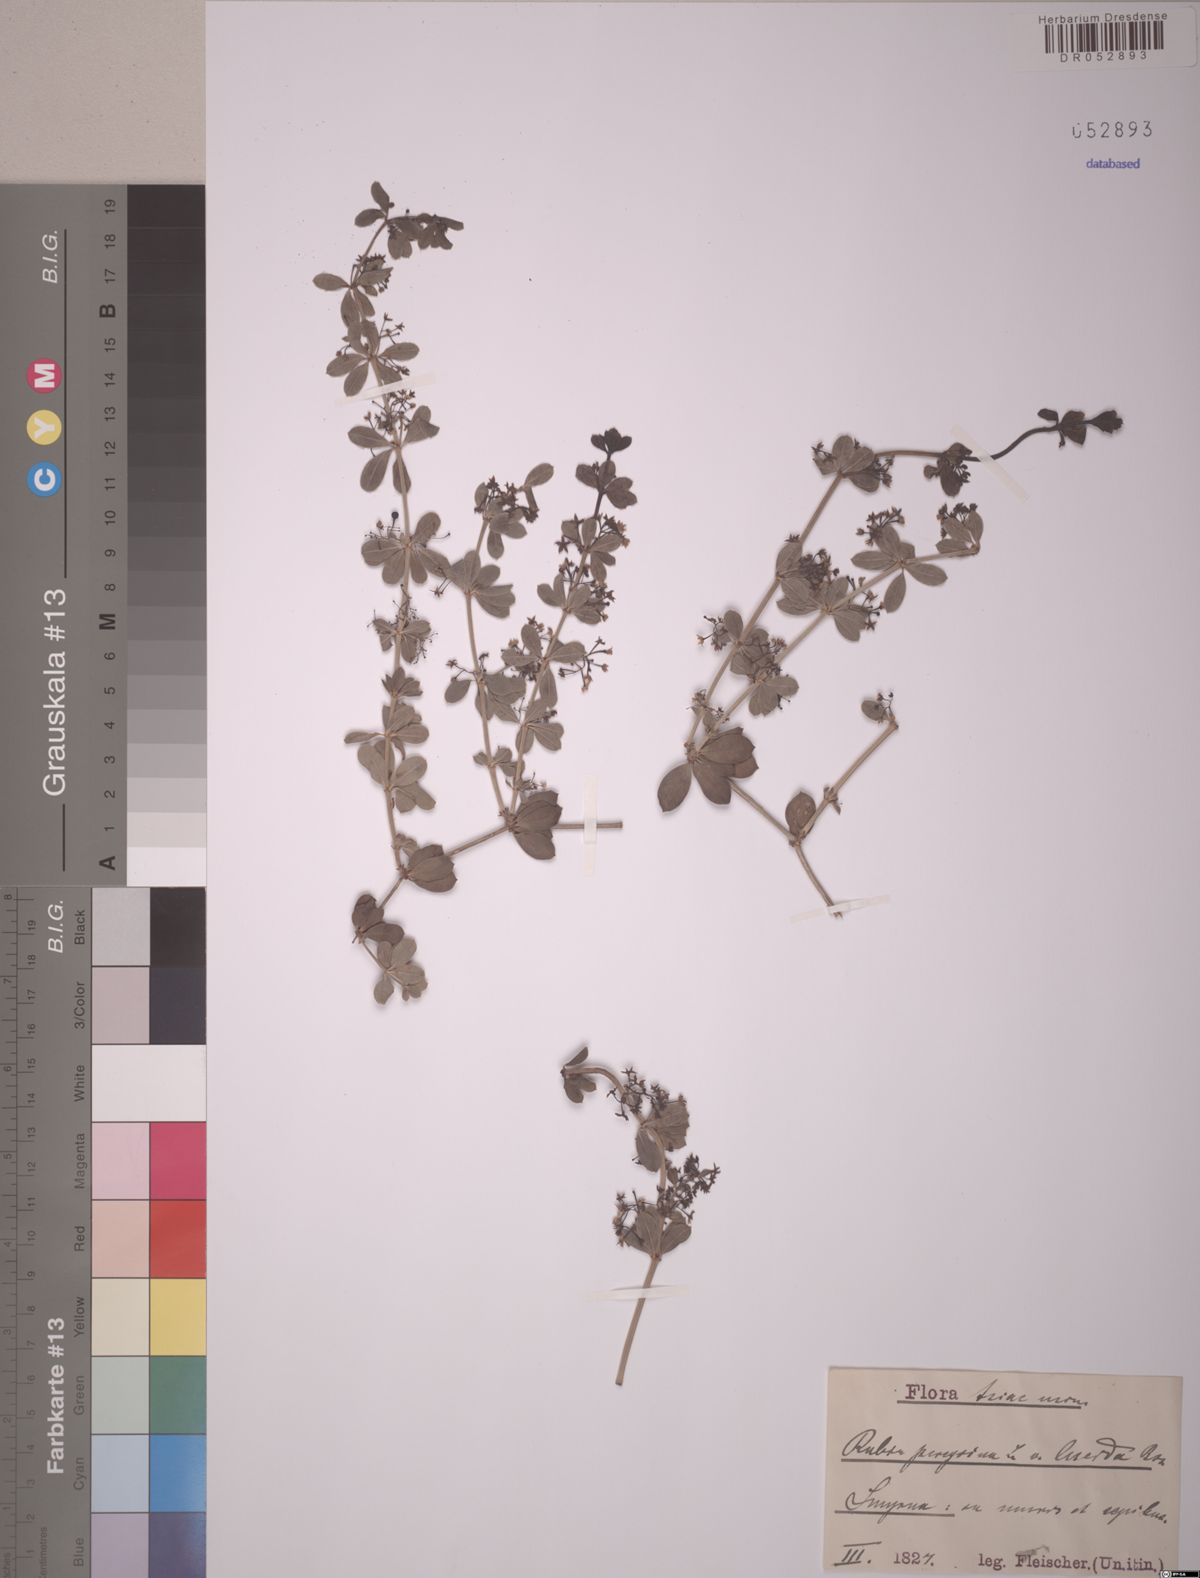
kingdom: Plantae
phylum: Tracheophyta
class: Magnoliopsida
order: Gentianales
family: Rubiaceae
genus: Rubia
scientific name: Rubia peregrina
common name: Wild madder
